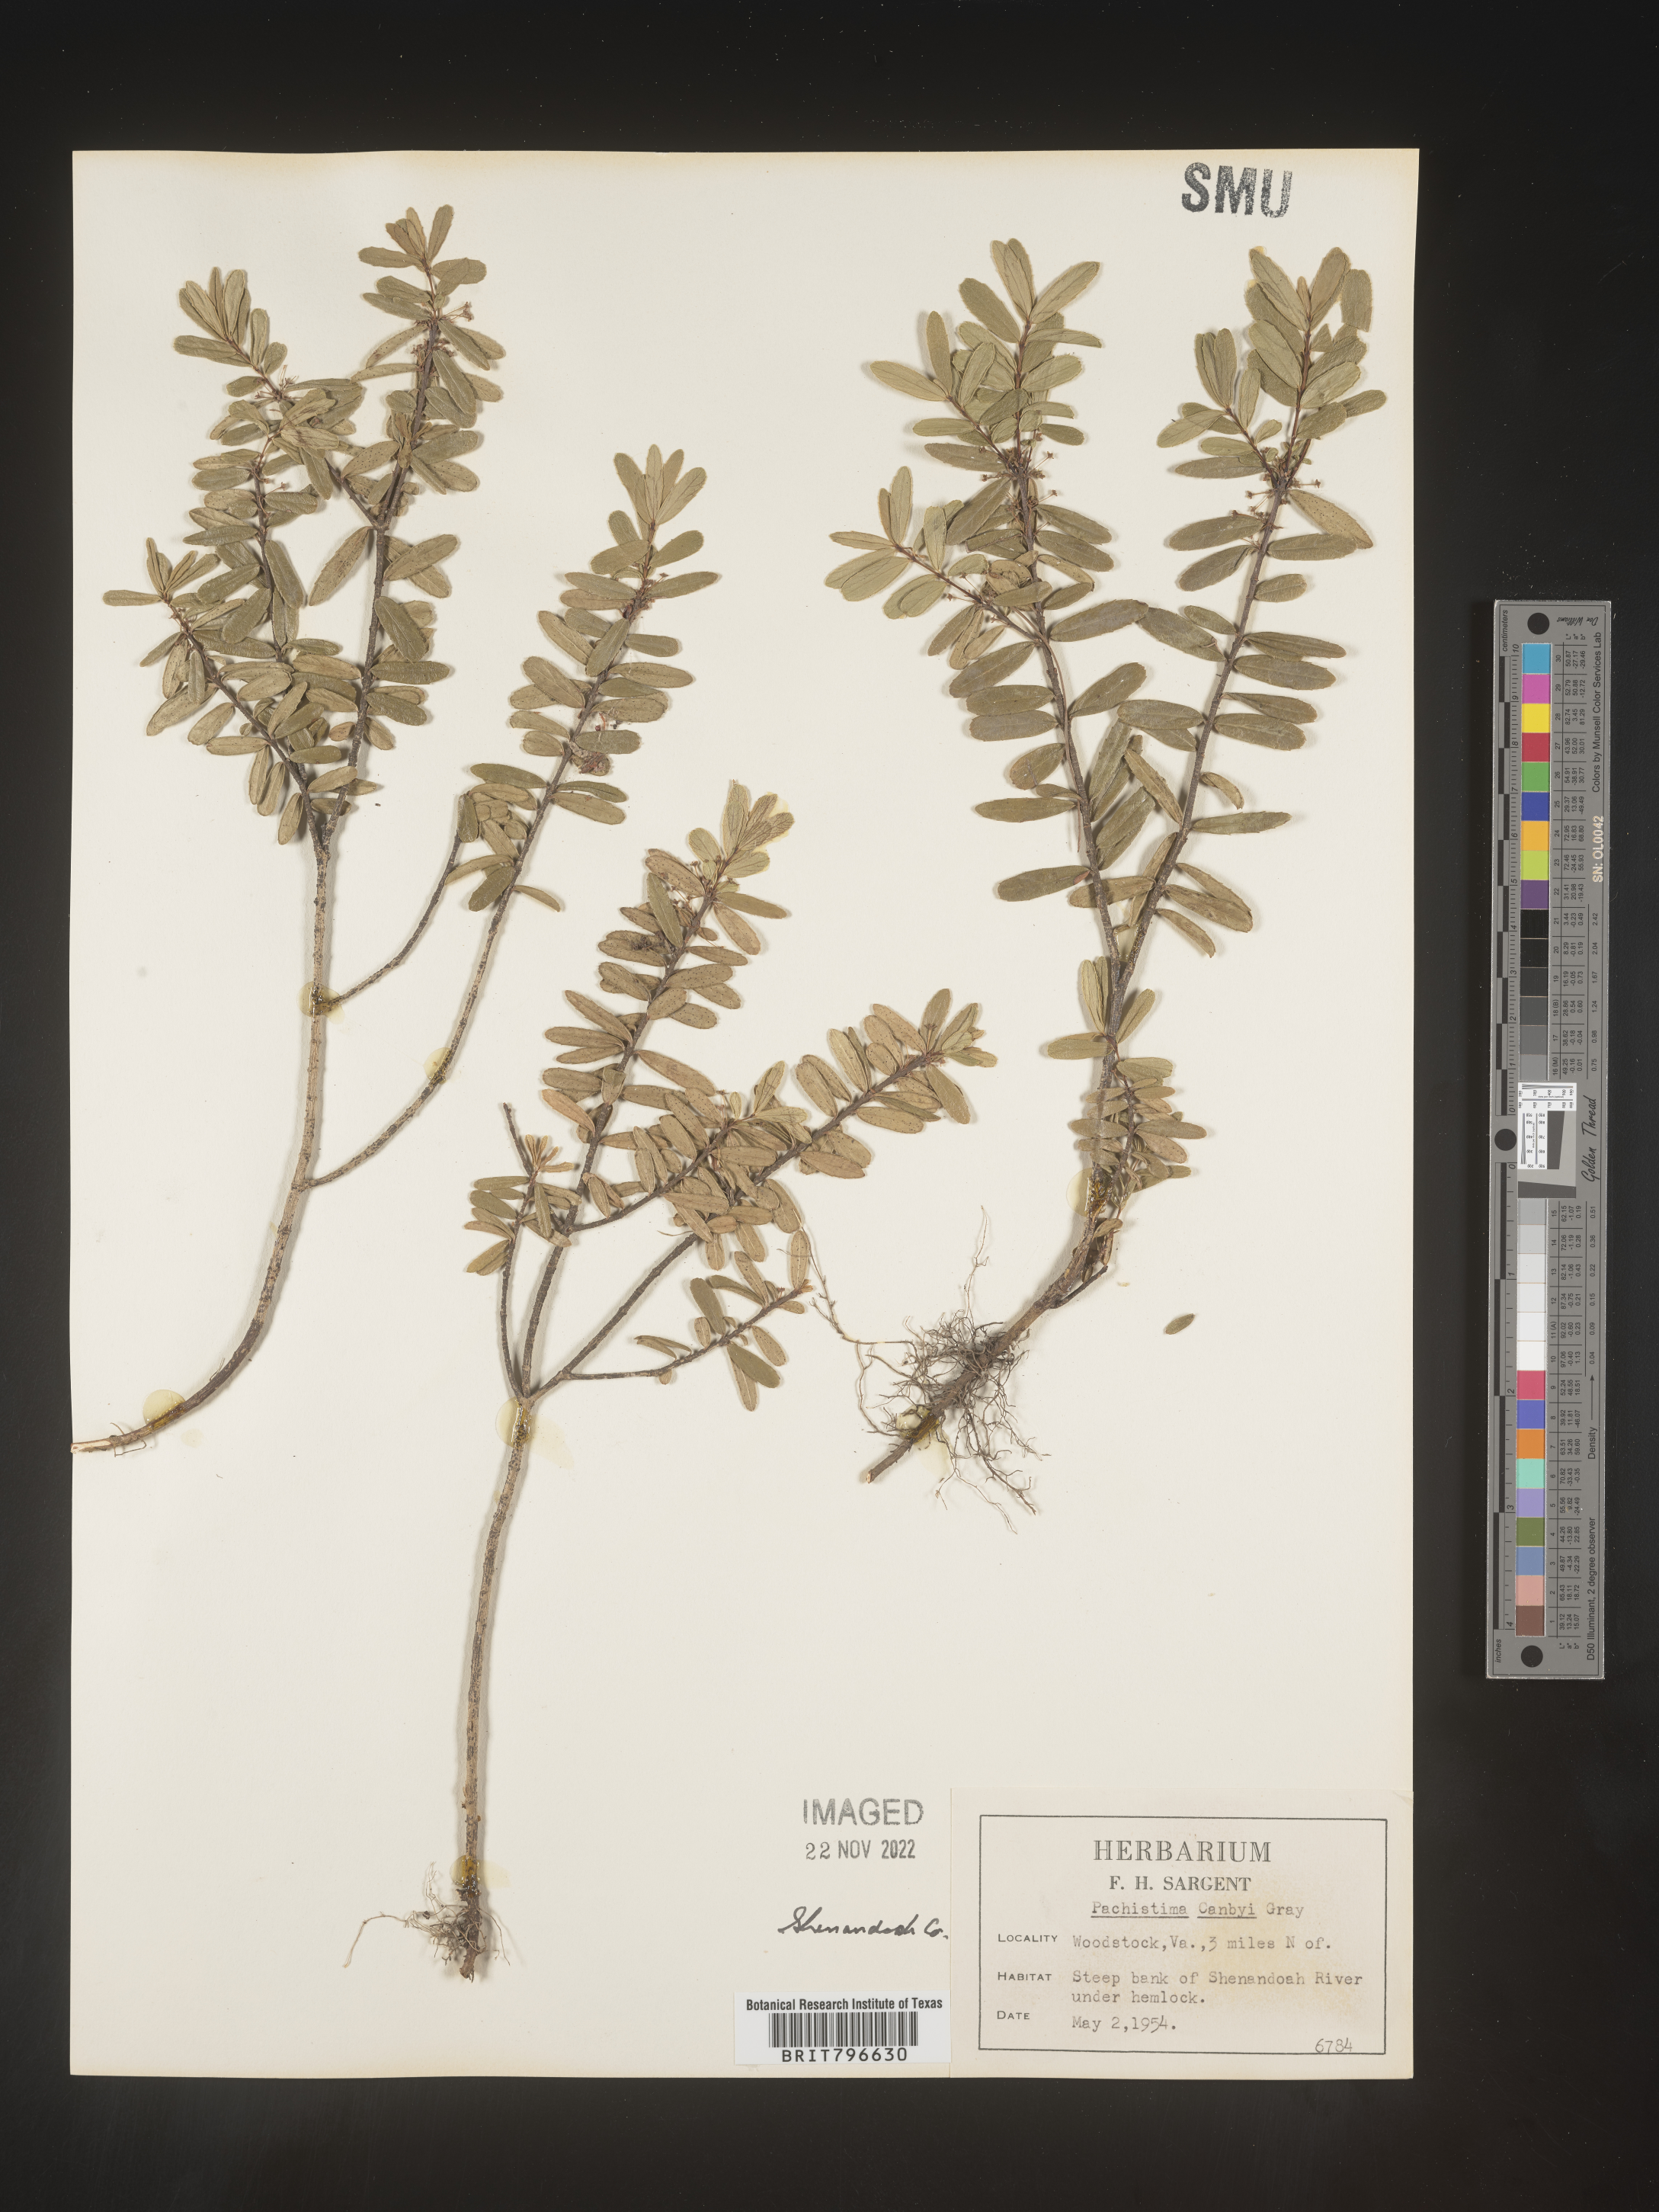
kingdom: Plantae
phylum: Tracheophyta
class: Magnoliopsida
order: Celastrales
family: Celastraceae
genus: Paxistima
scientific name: Paxistima canbyi
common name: Cliffgreen
